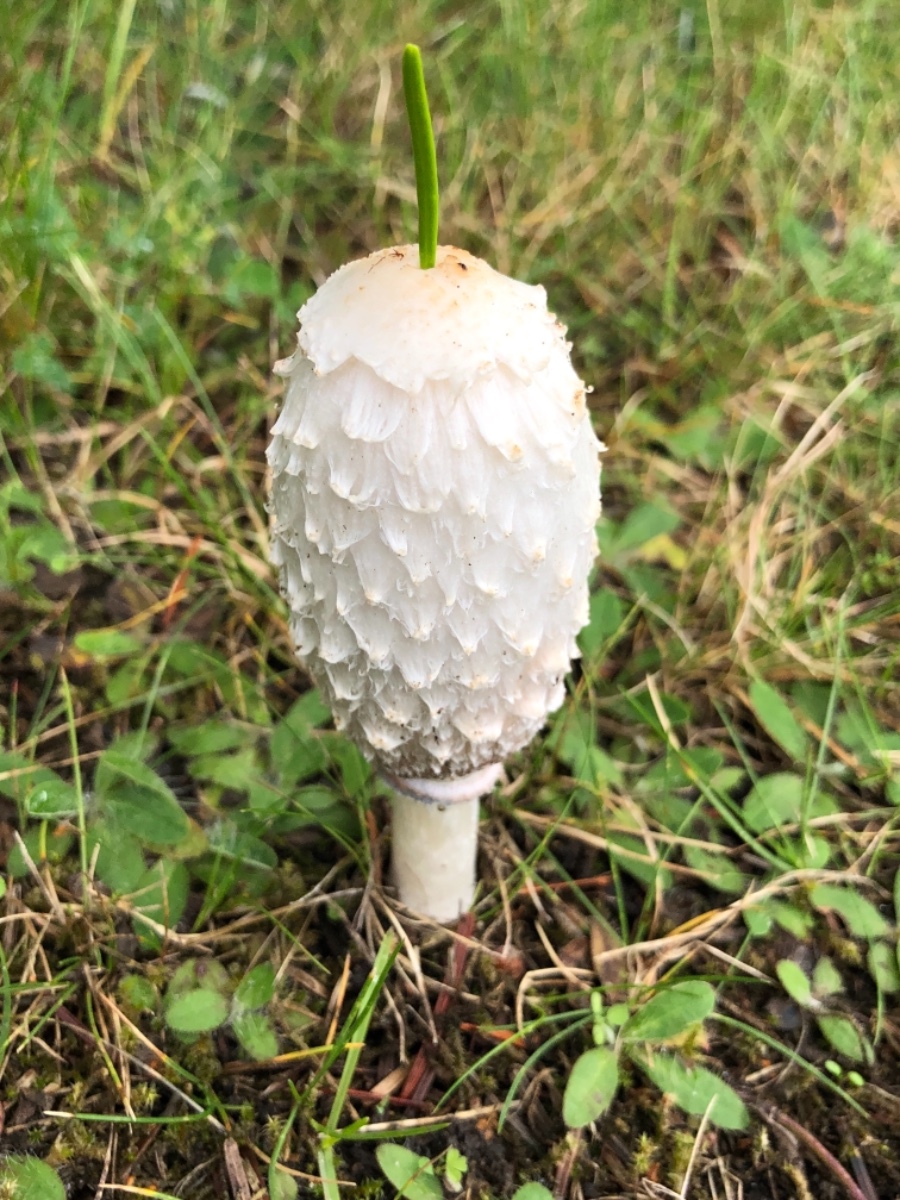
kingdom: Fungi
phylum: Basidiomycota
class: Agaricomycetes
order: Agaricales
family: Agaricaceae
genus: Coprinus
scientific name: Coprinus comatus
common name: stor parykhat
